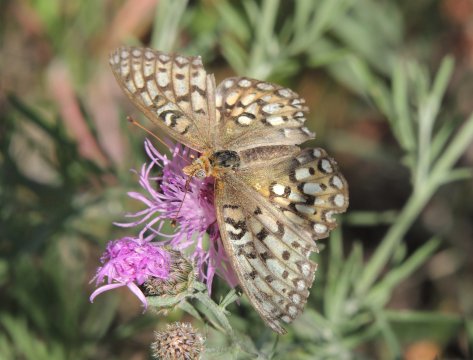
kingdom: Animalia
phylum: Arthropoda
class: Insecta
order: Lepidoptera
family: Nymphalidae
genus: Speyeria
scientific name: Speyeria callippe
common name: Callippe Fritillary
